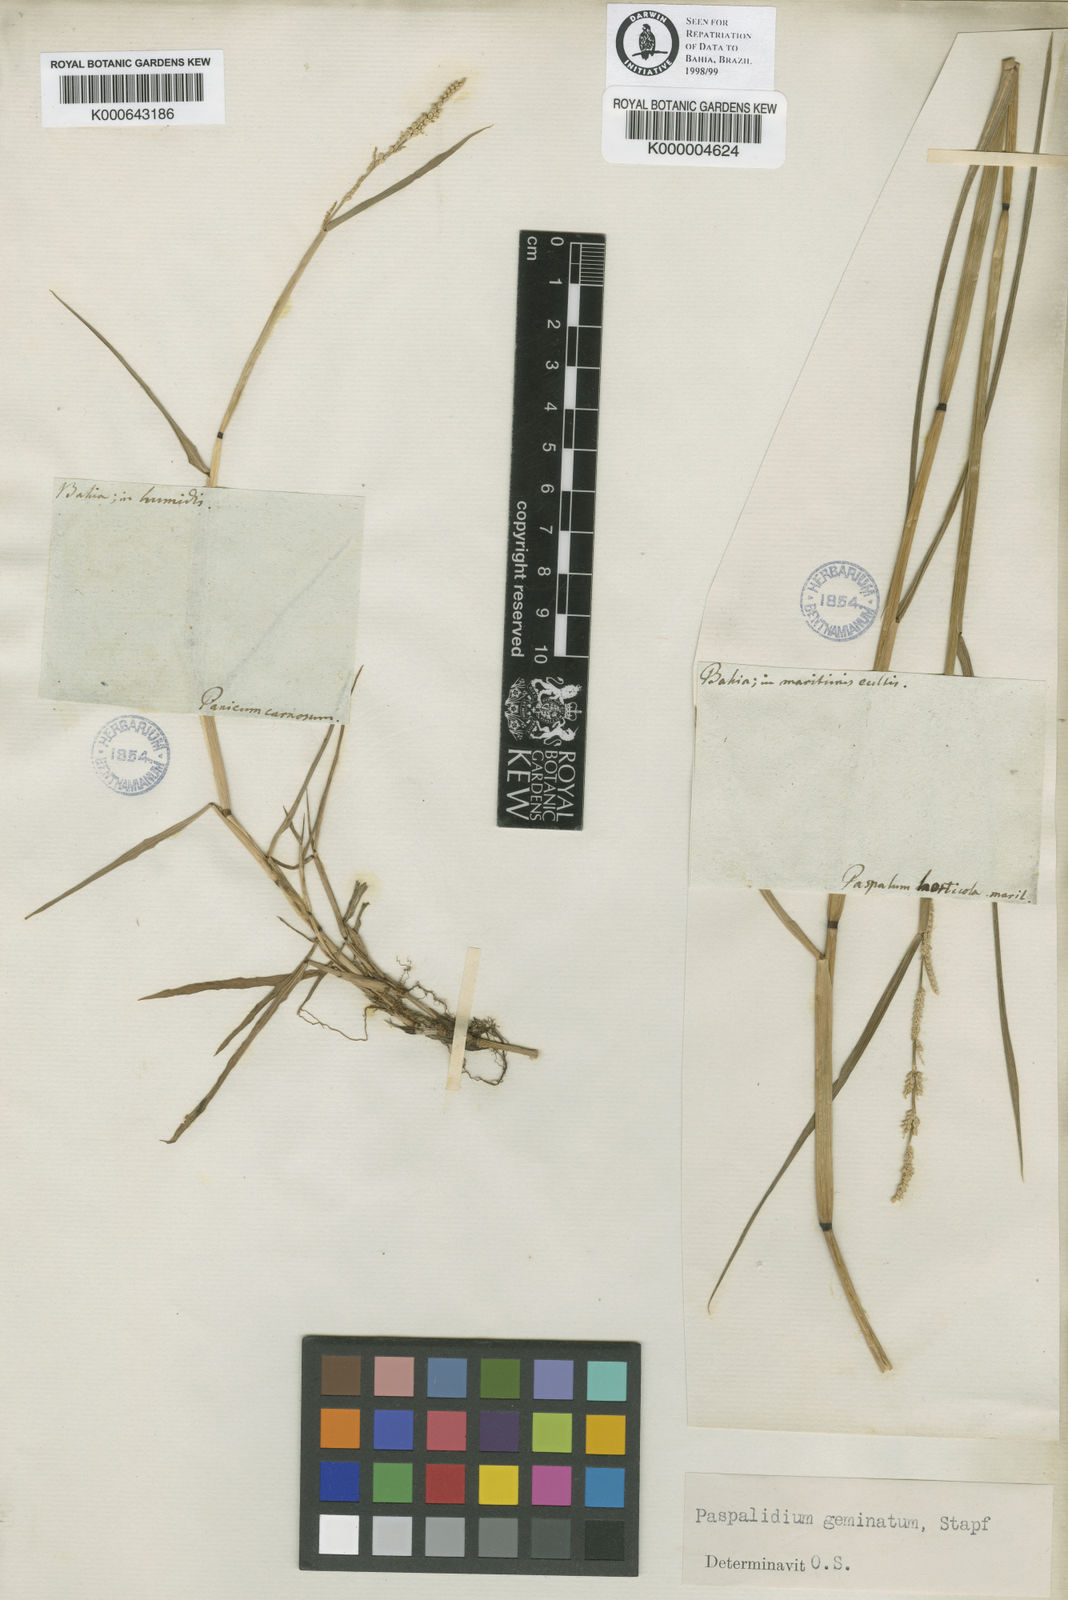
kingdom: Plantae
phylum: Tracheophyta
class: Liliopsida
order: Poales
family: Poaceae
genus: Setaria
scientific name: Setaria geminata
